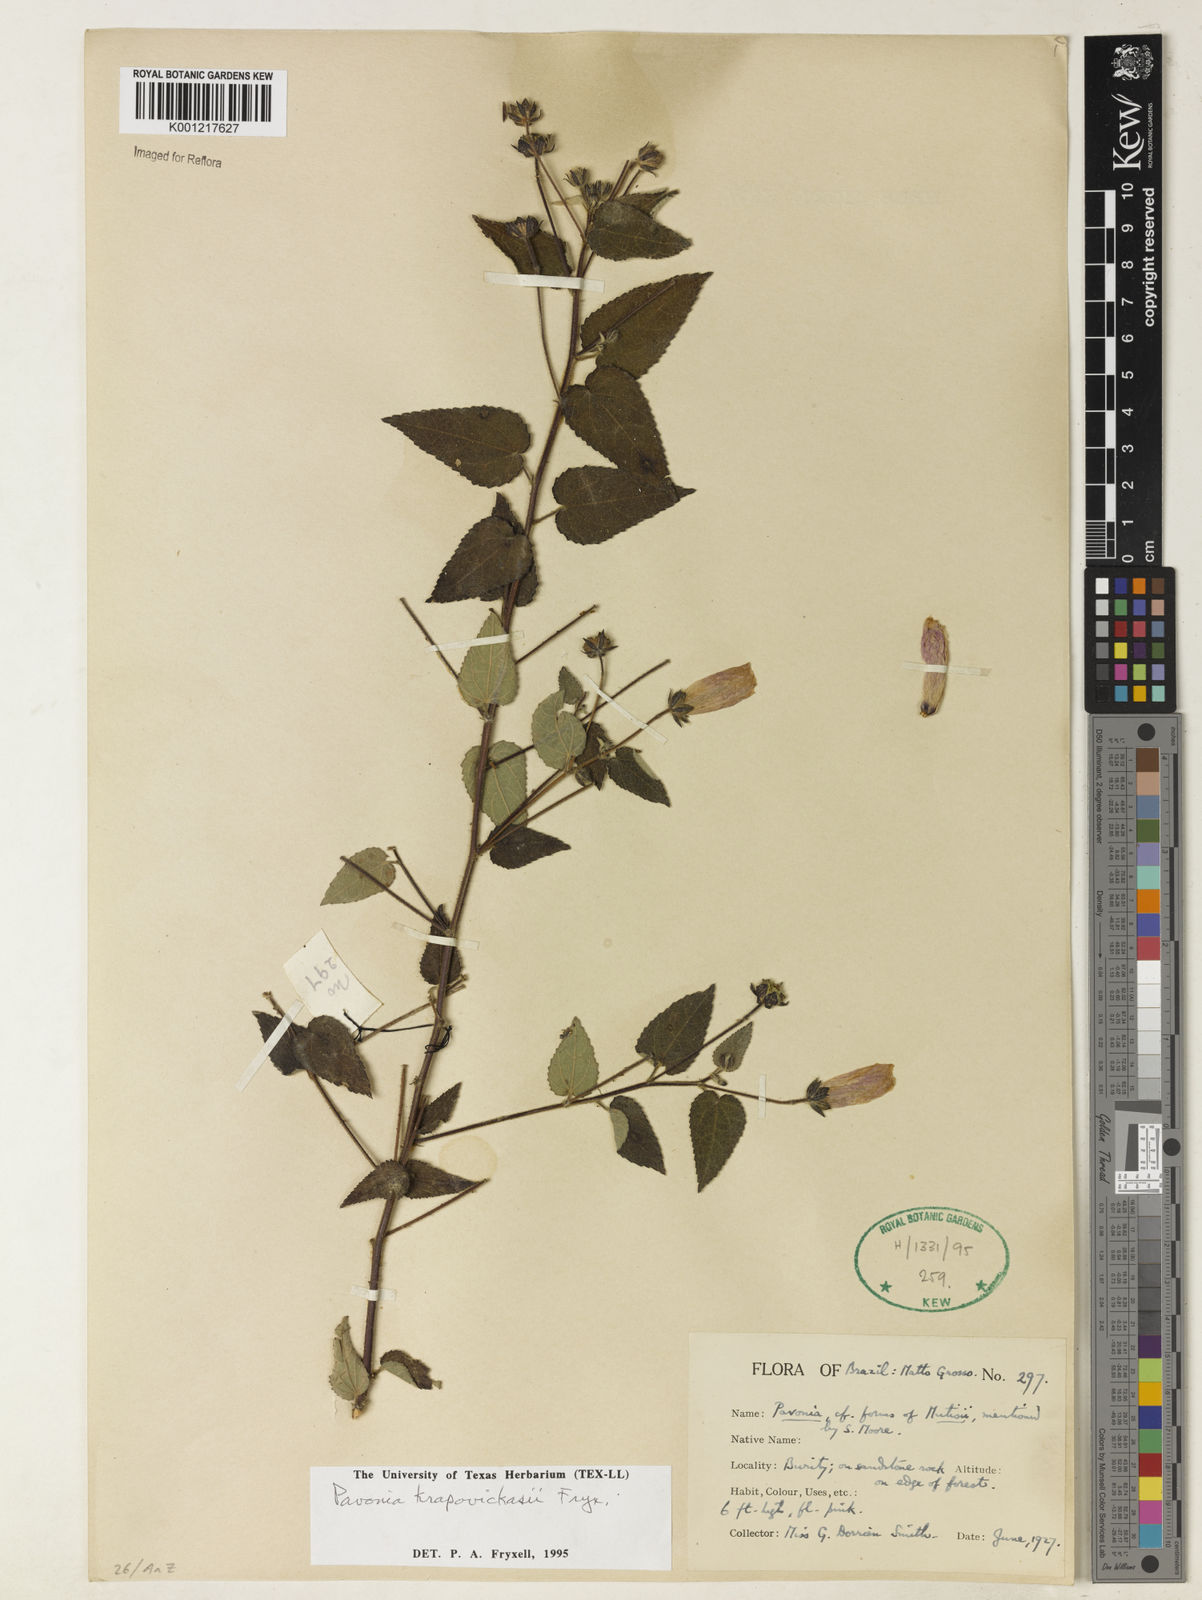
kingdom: Plantae
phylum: Tracheophyta
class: Magnoliopsida
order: Malvales
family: Malvaceae
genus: Pavonia
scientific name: Pavonia krapovickasii
